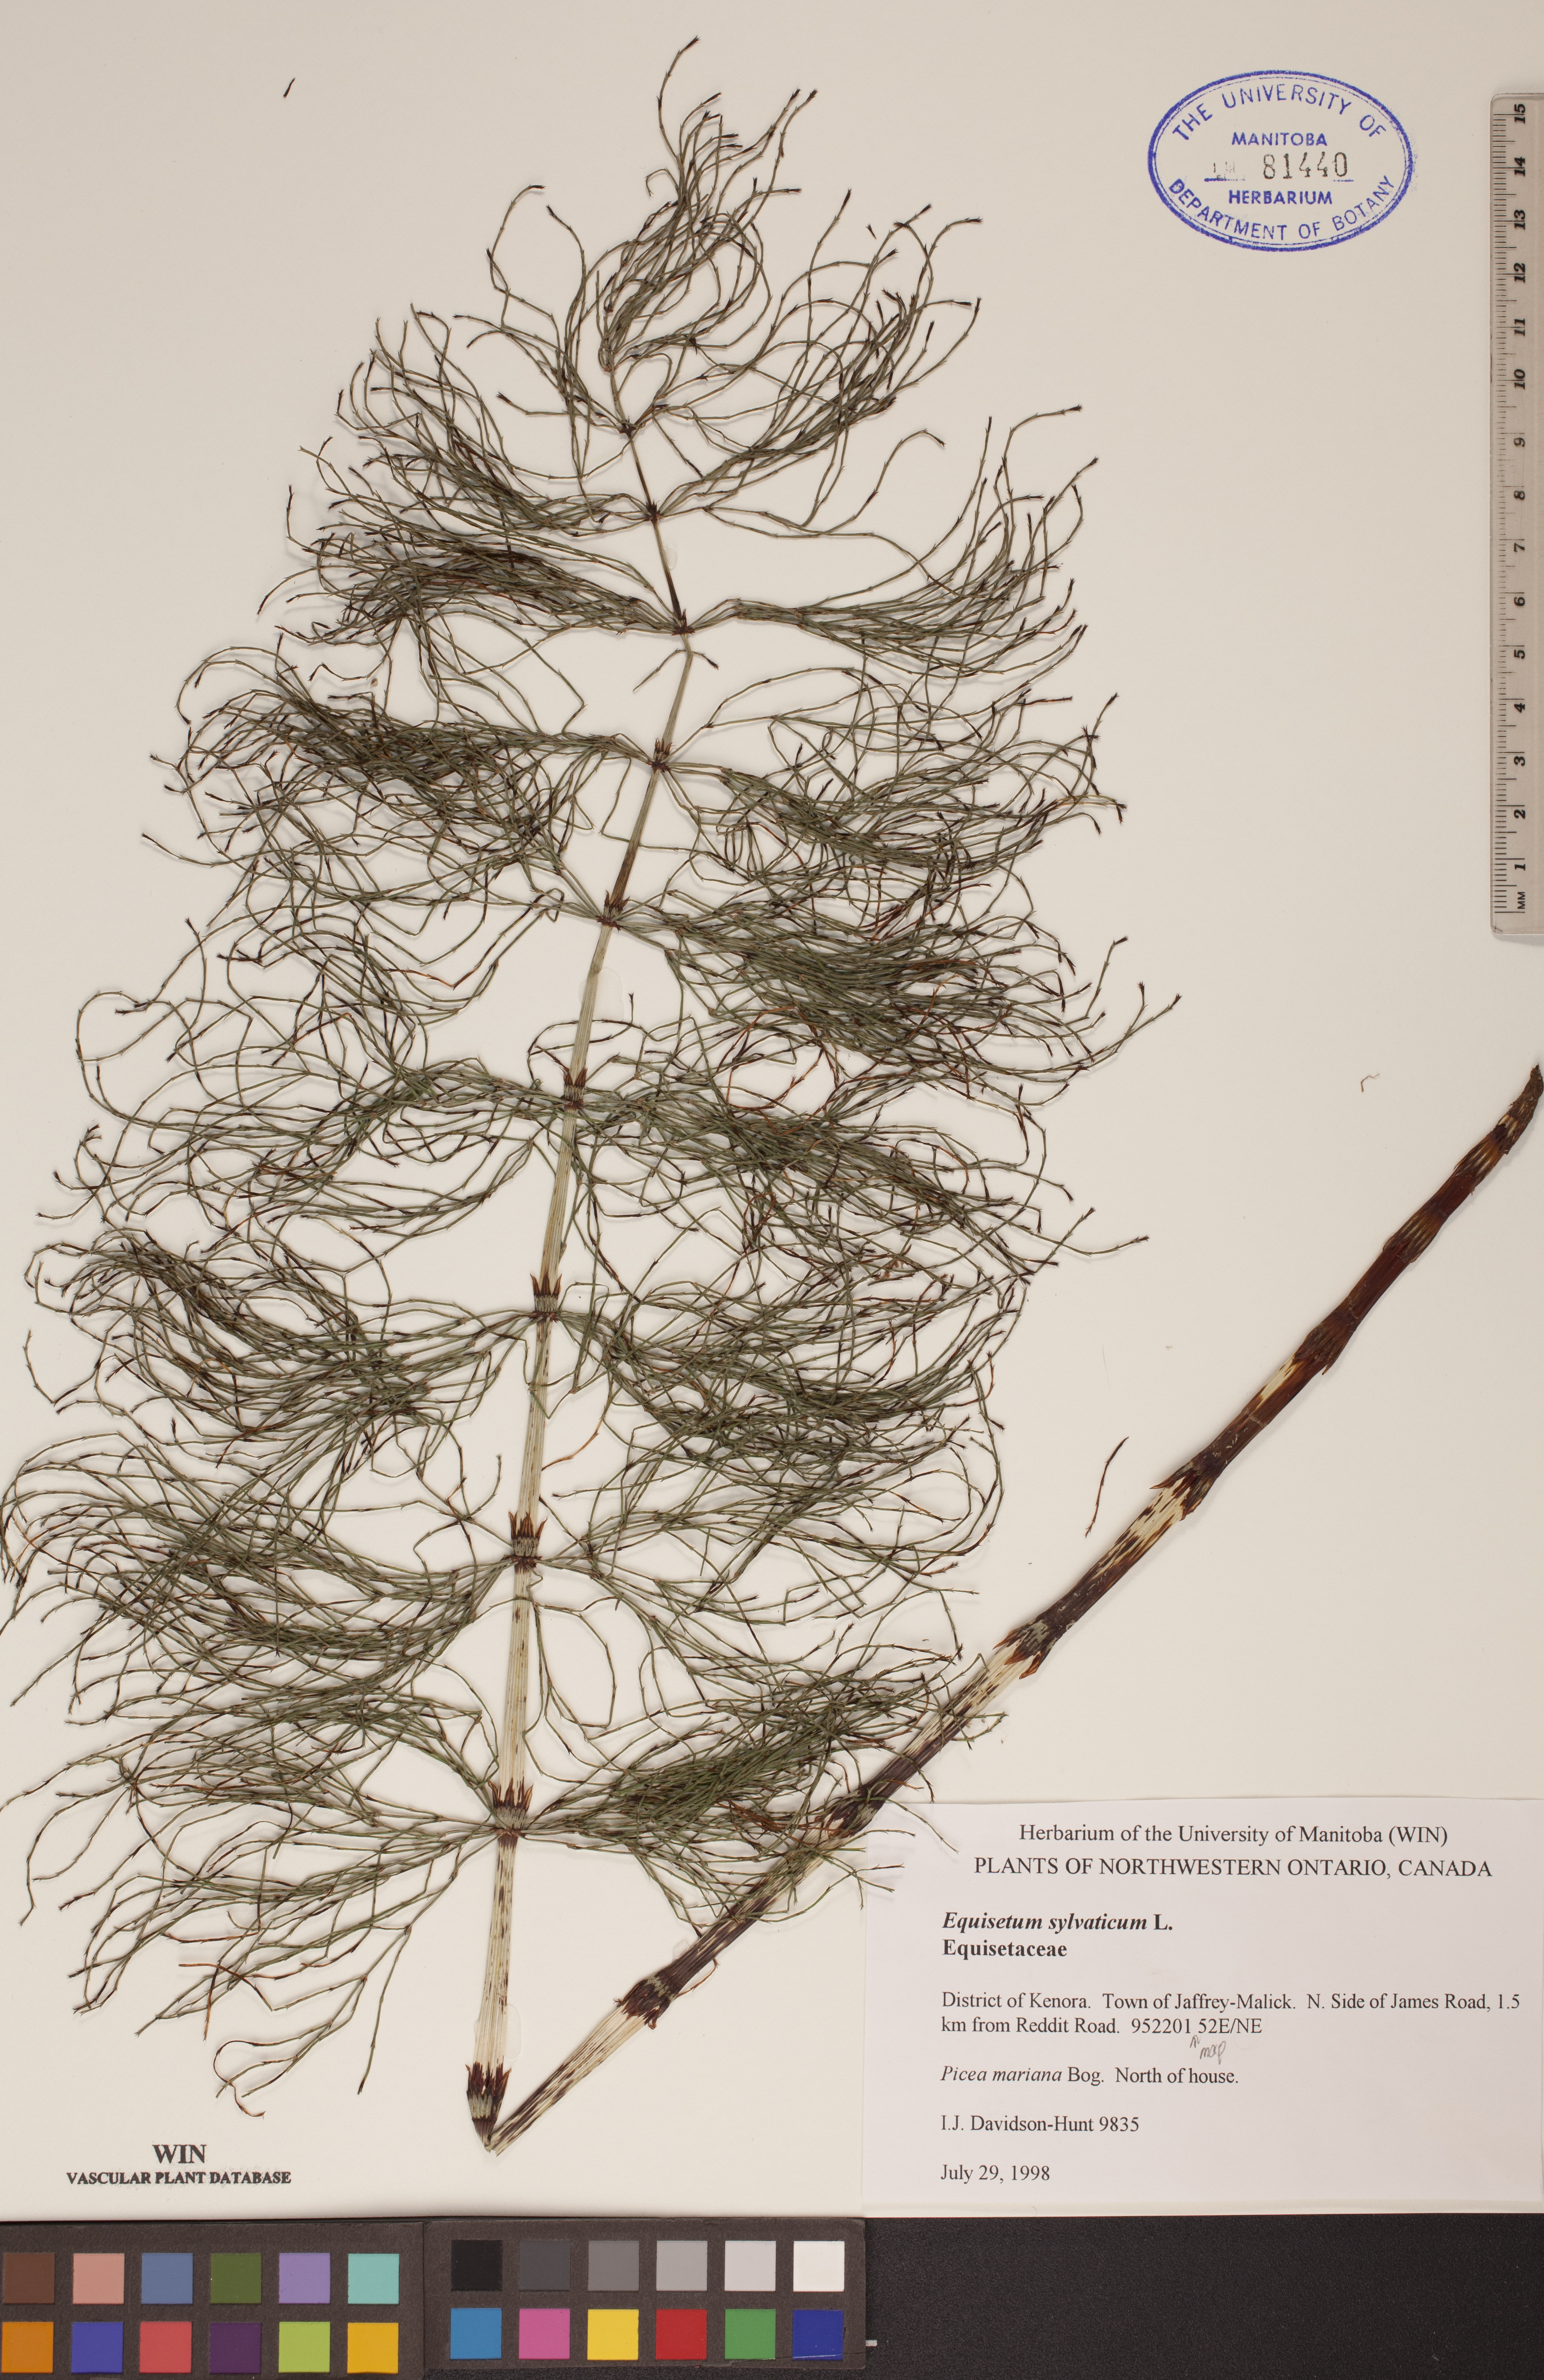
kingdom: Plantae
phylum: Tracheophyta
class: Polypodiopsida
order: Equisetales
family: Equisetaceae
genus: Equisetum
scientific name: Equisetum sylvaticum
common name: Wood horsetail
